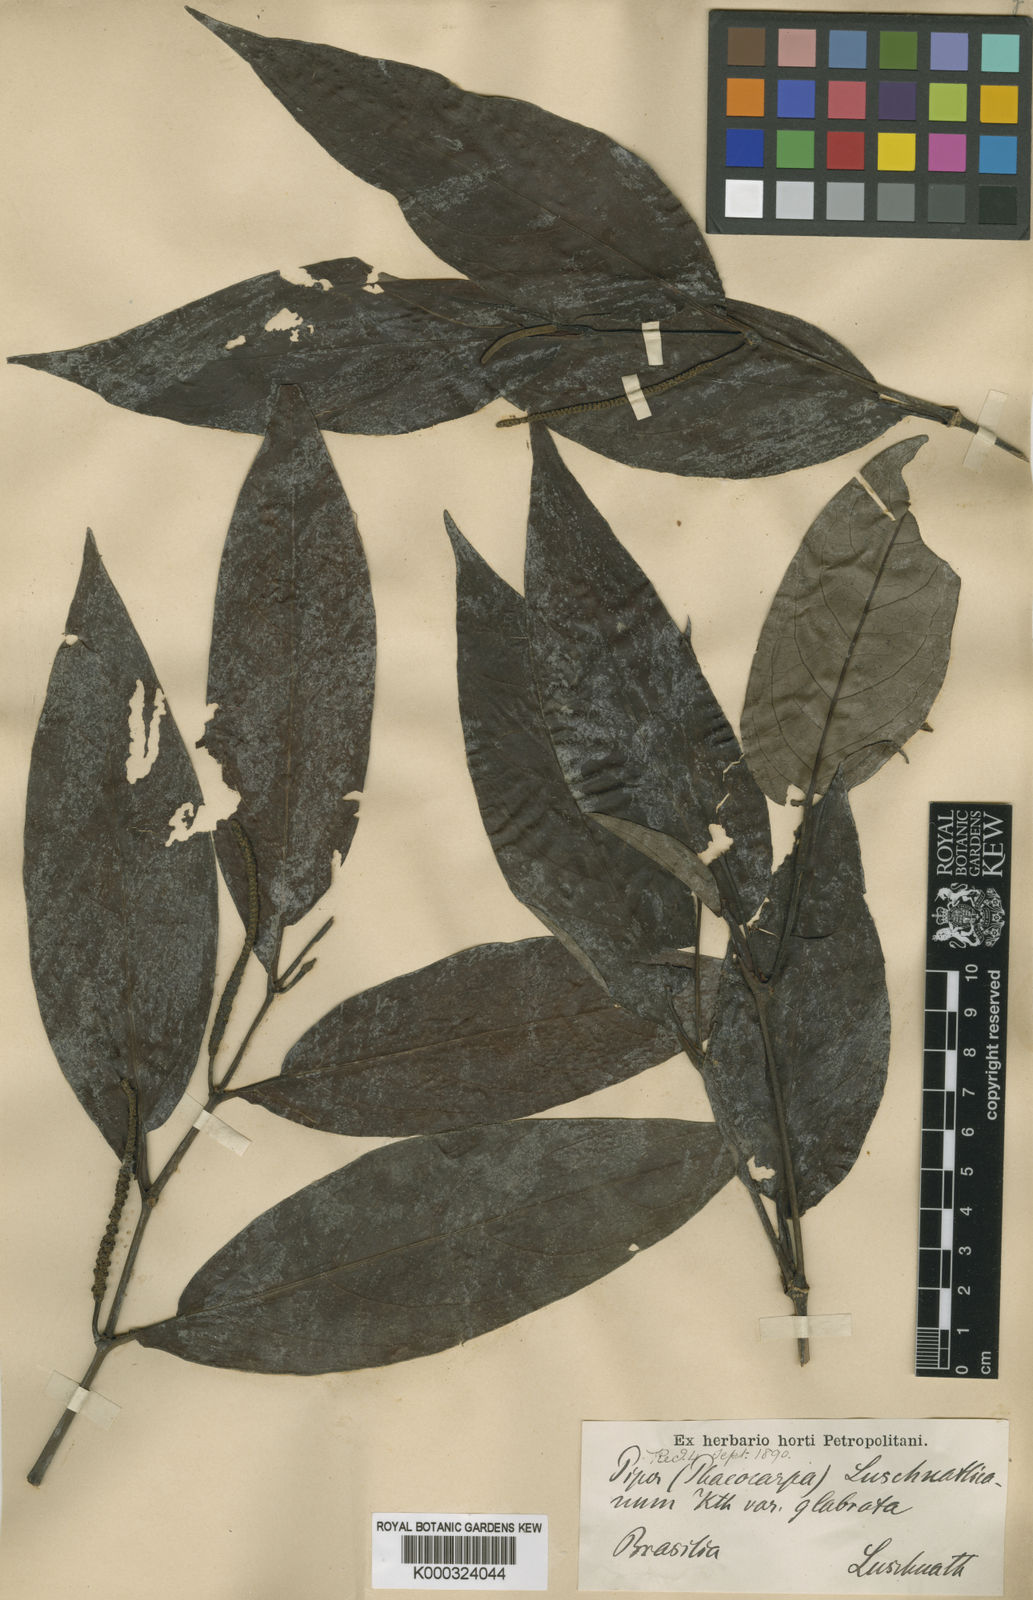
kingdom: Plantae
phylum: Tracheophyta
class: Magnoliopsida
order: Piperales
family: Piperaceae
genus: Piper
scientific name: Piper
